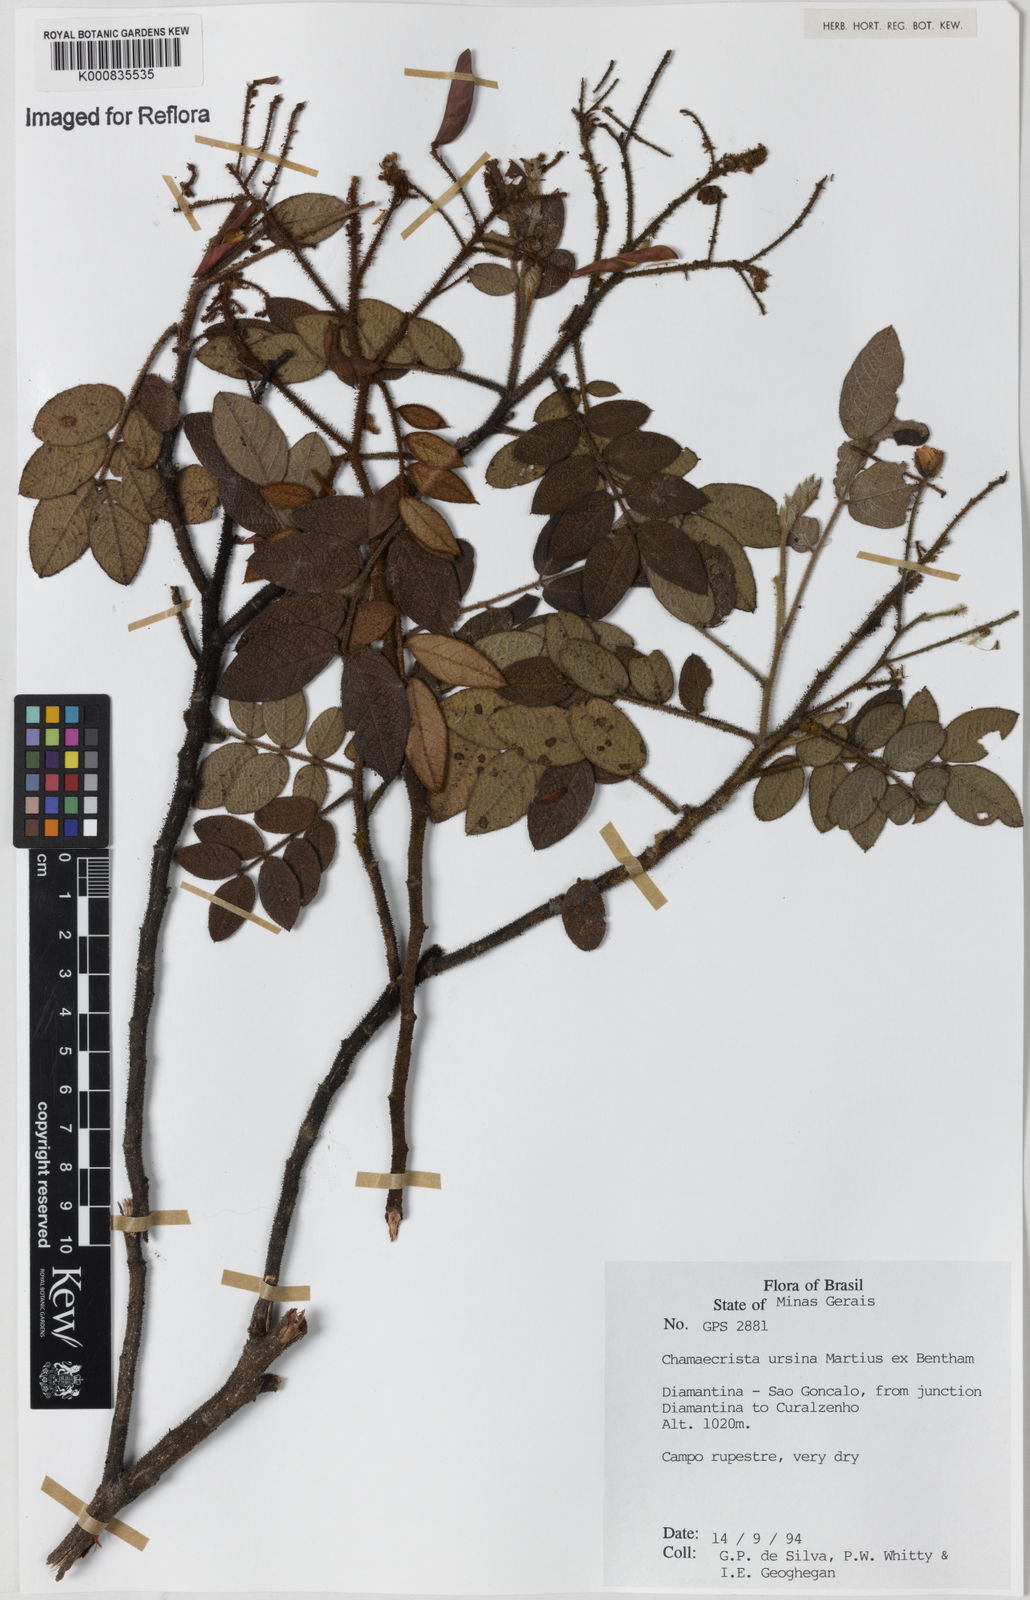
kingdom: Plantae
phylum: Tracheophyta
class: Magnoliopsida
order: Fabales
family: Fabaceae
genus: Chamaecrista
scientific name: Chamaecrista ursina
